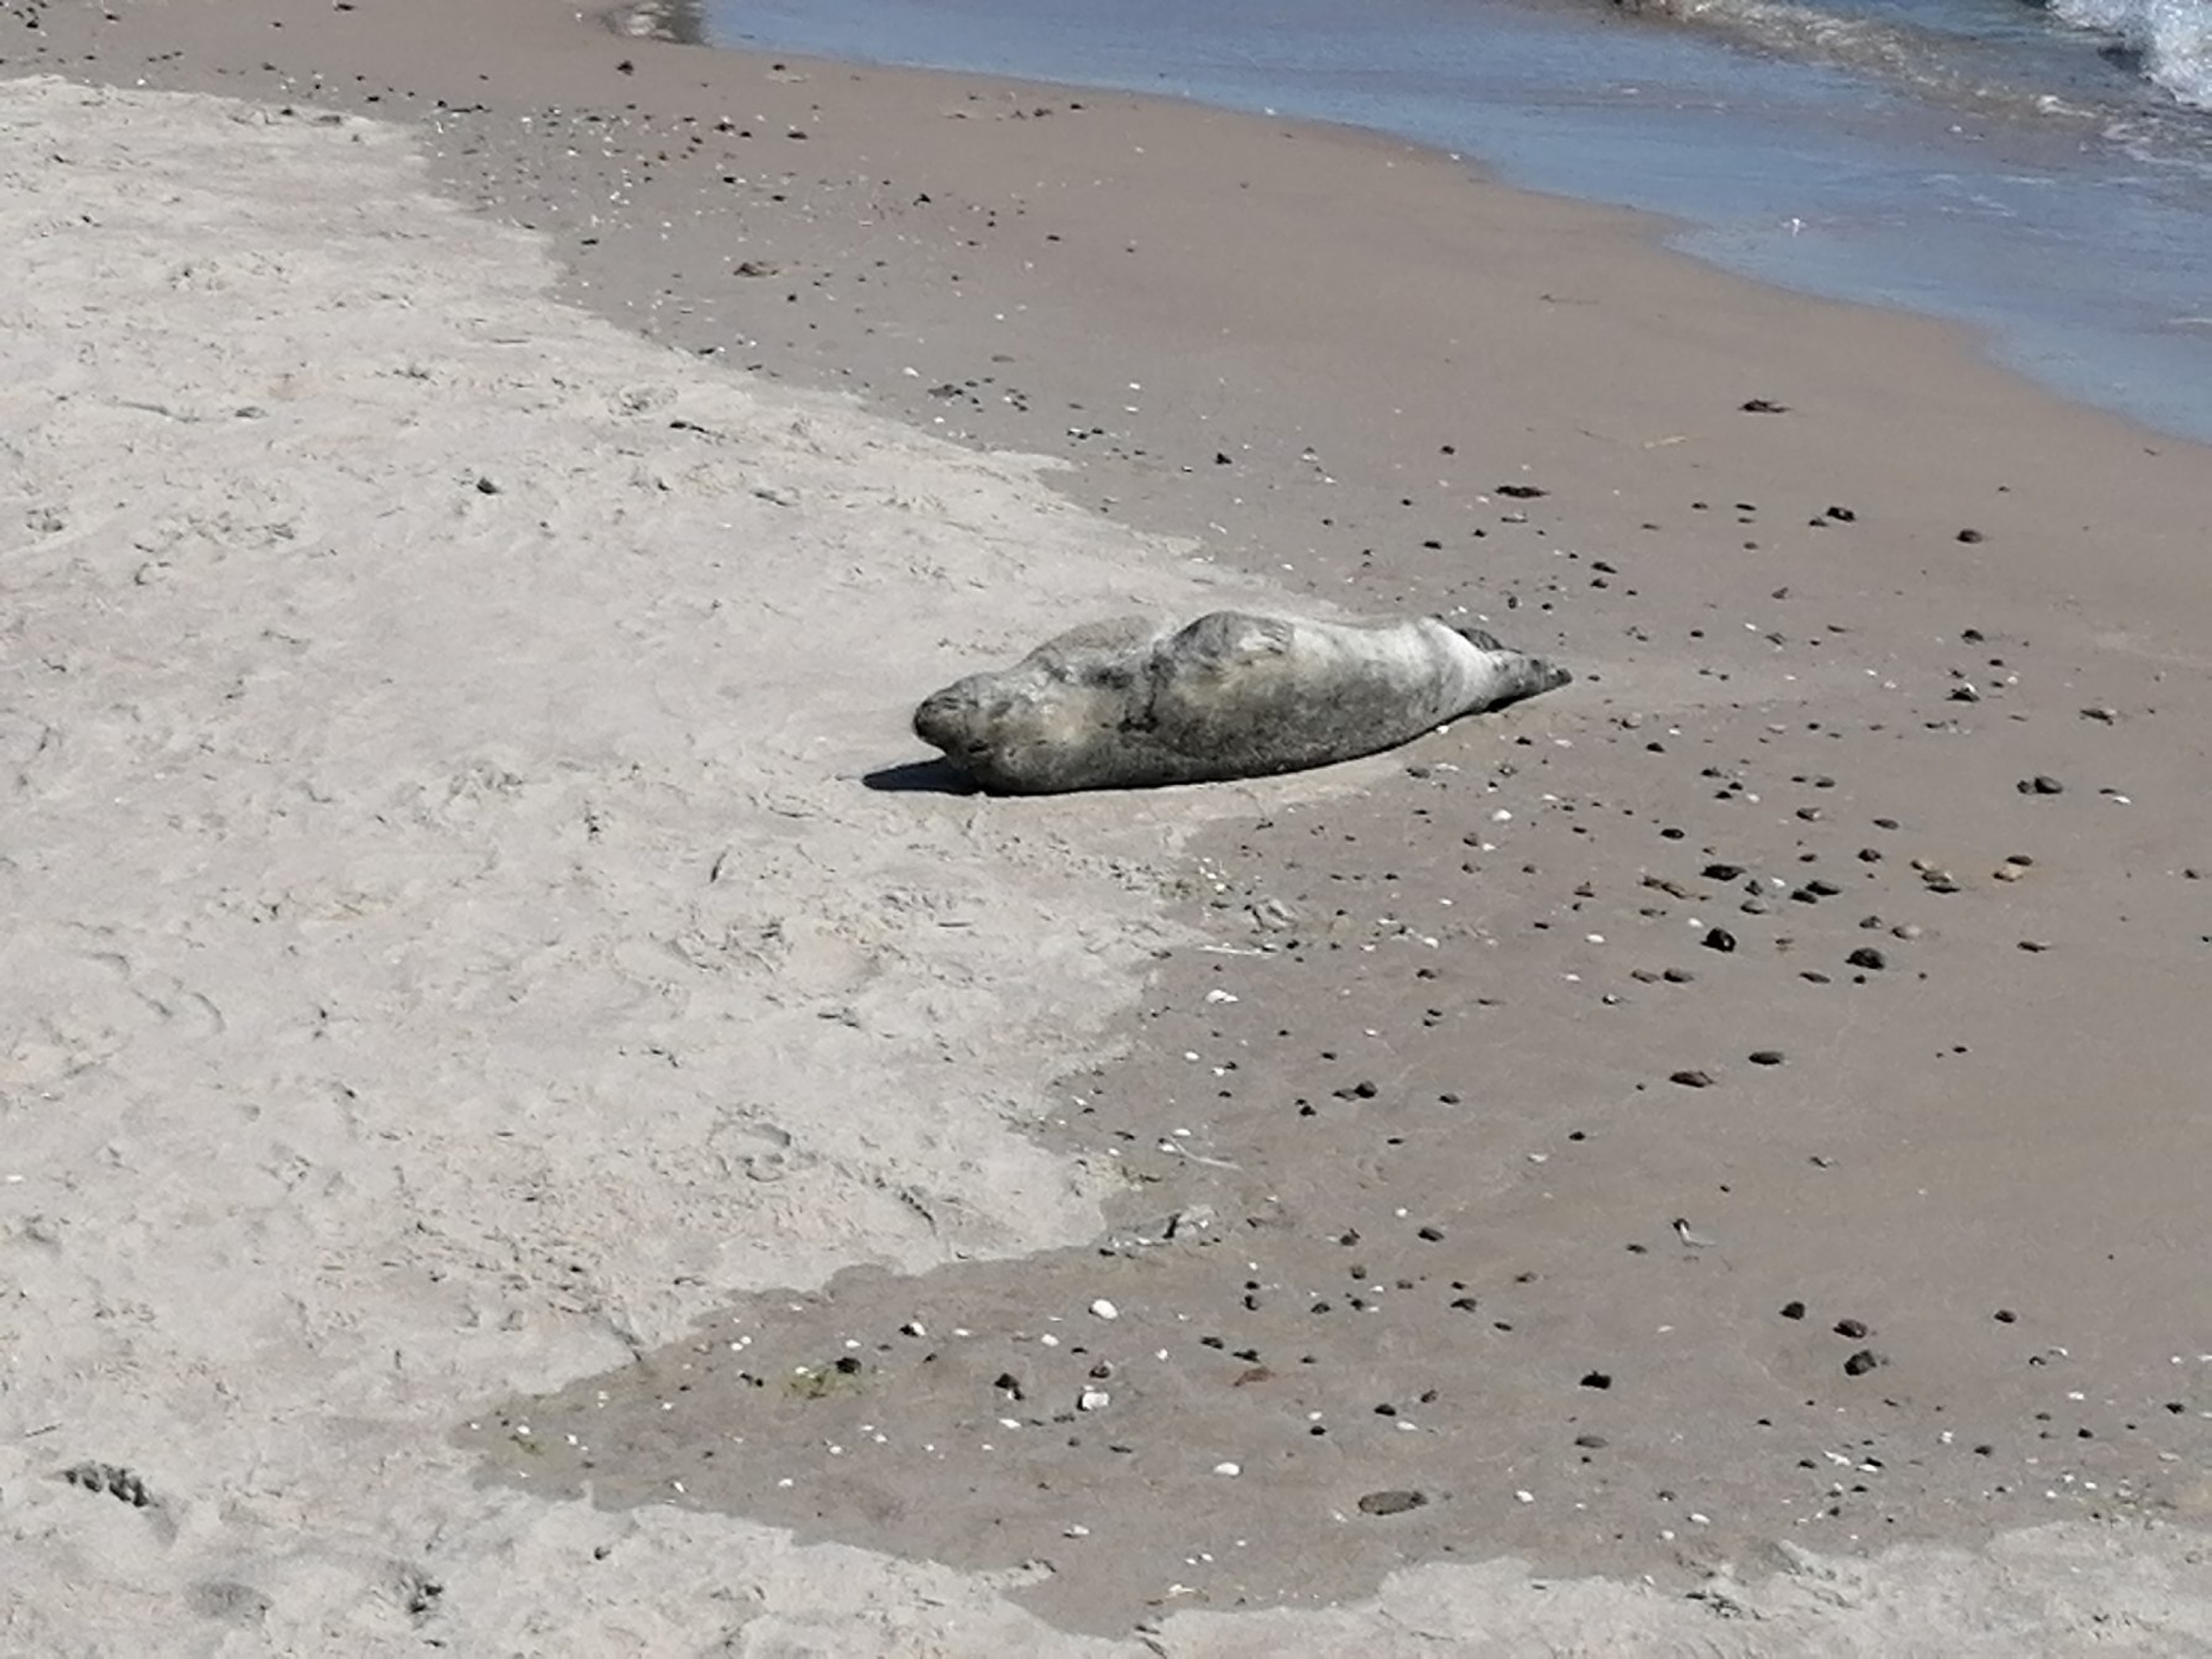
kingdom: Animalia
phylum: Chordata
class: Mammalia
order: Carnivora
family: Phocidae
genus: Halichoerus
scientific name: Halichoerus grypus
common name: Gråsæl
